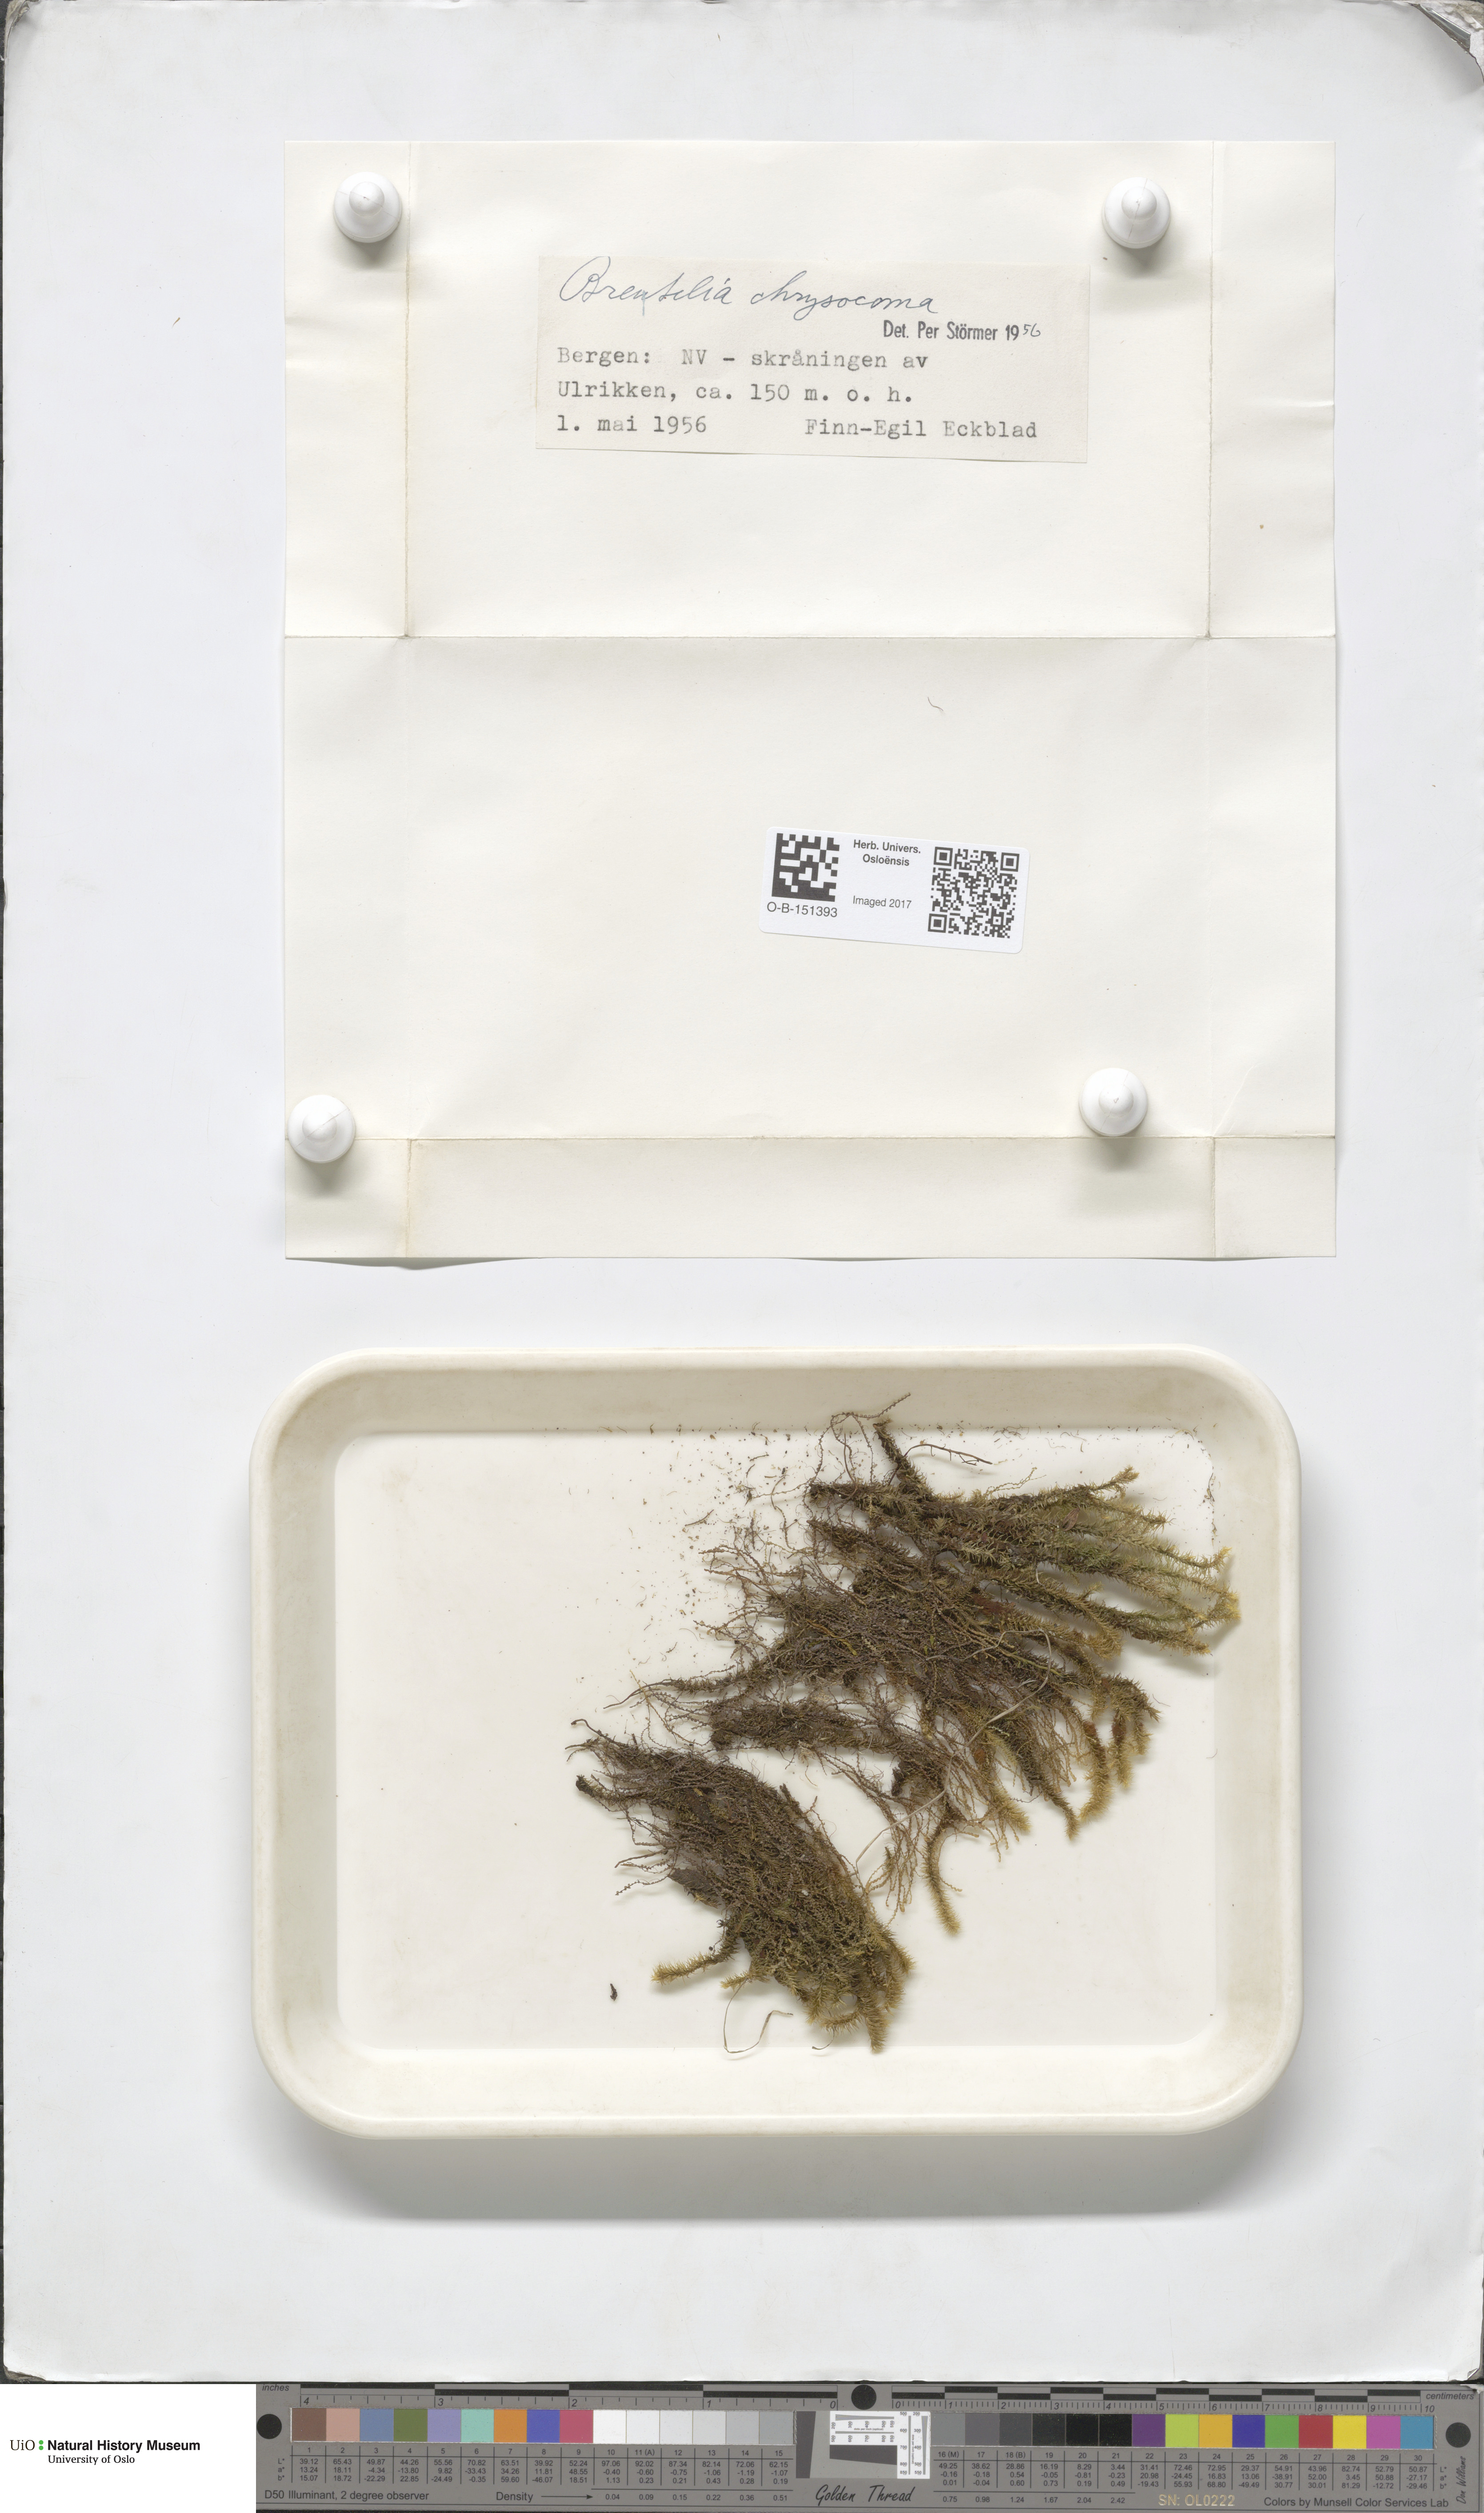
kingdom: Plantae
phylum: Bryophyta
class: Bryopsida
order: Bartramiales
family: Bartramiaceae
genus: Breutelia
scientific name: Breutelia chrysocoma
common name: Bottle-brush moss
